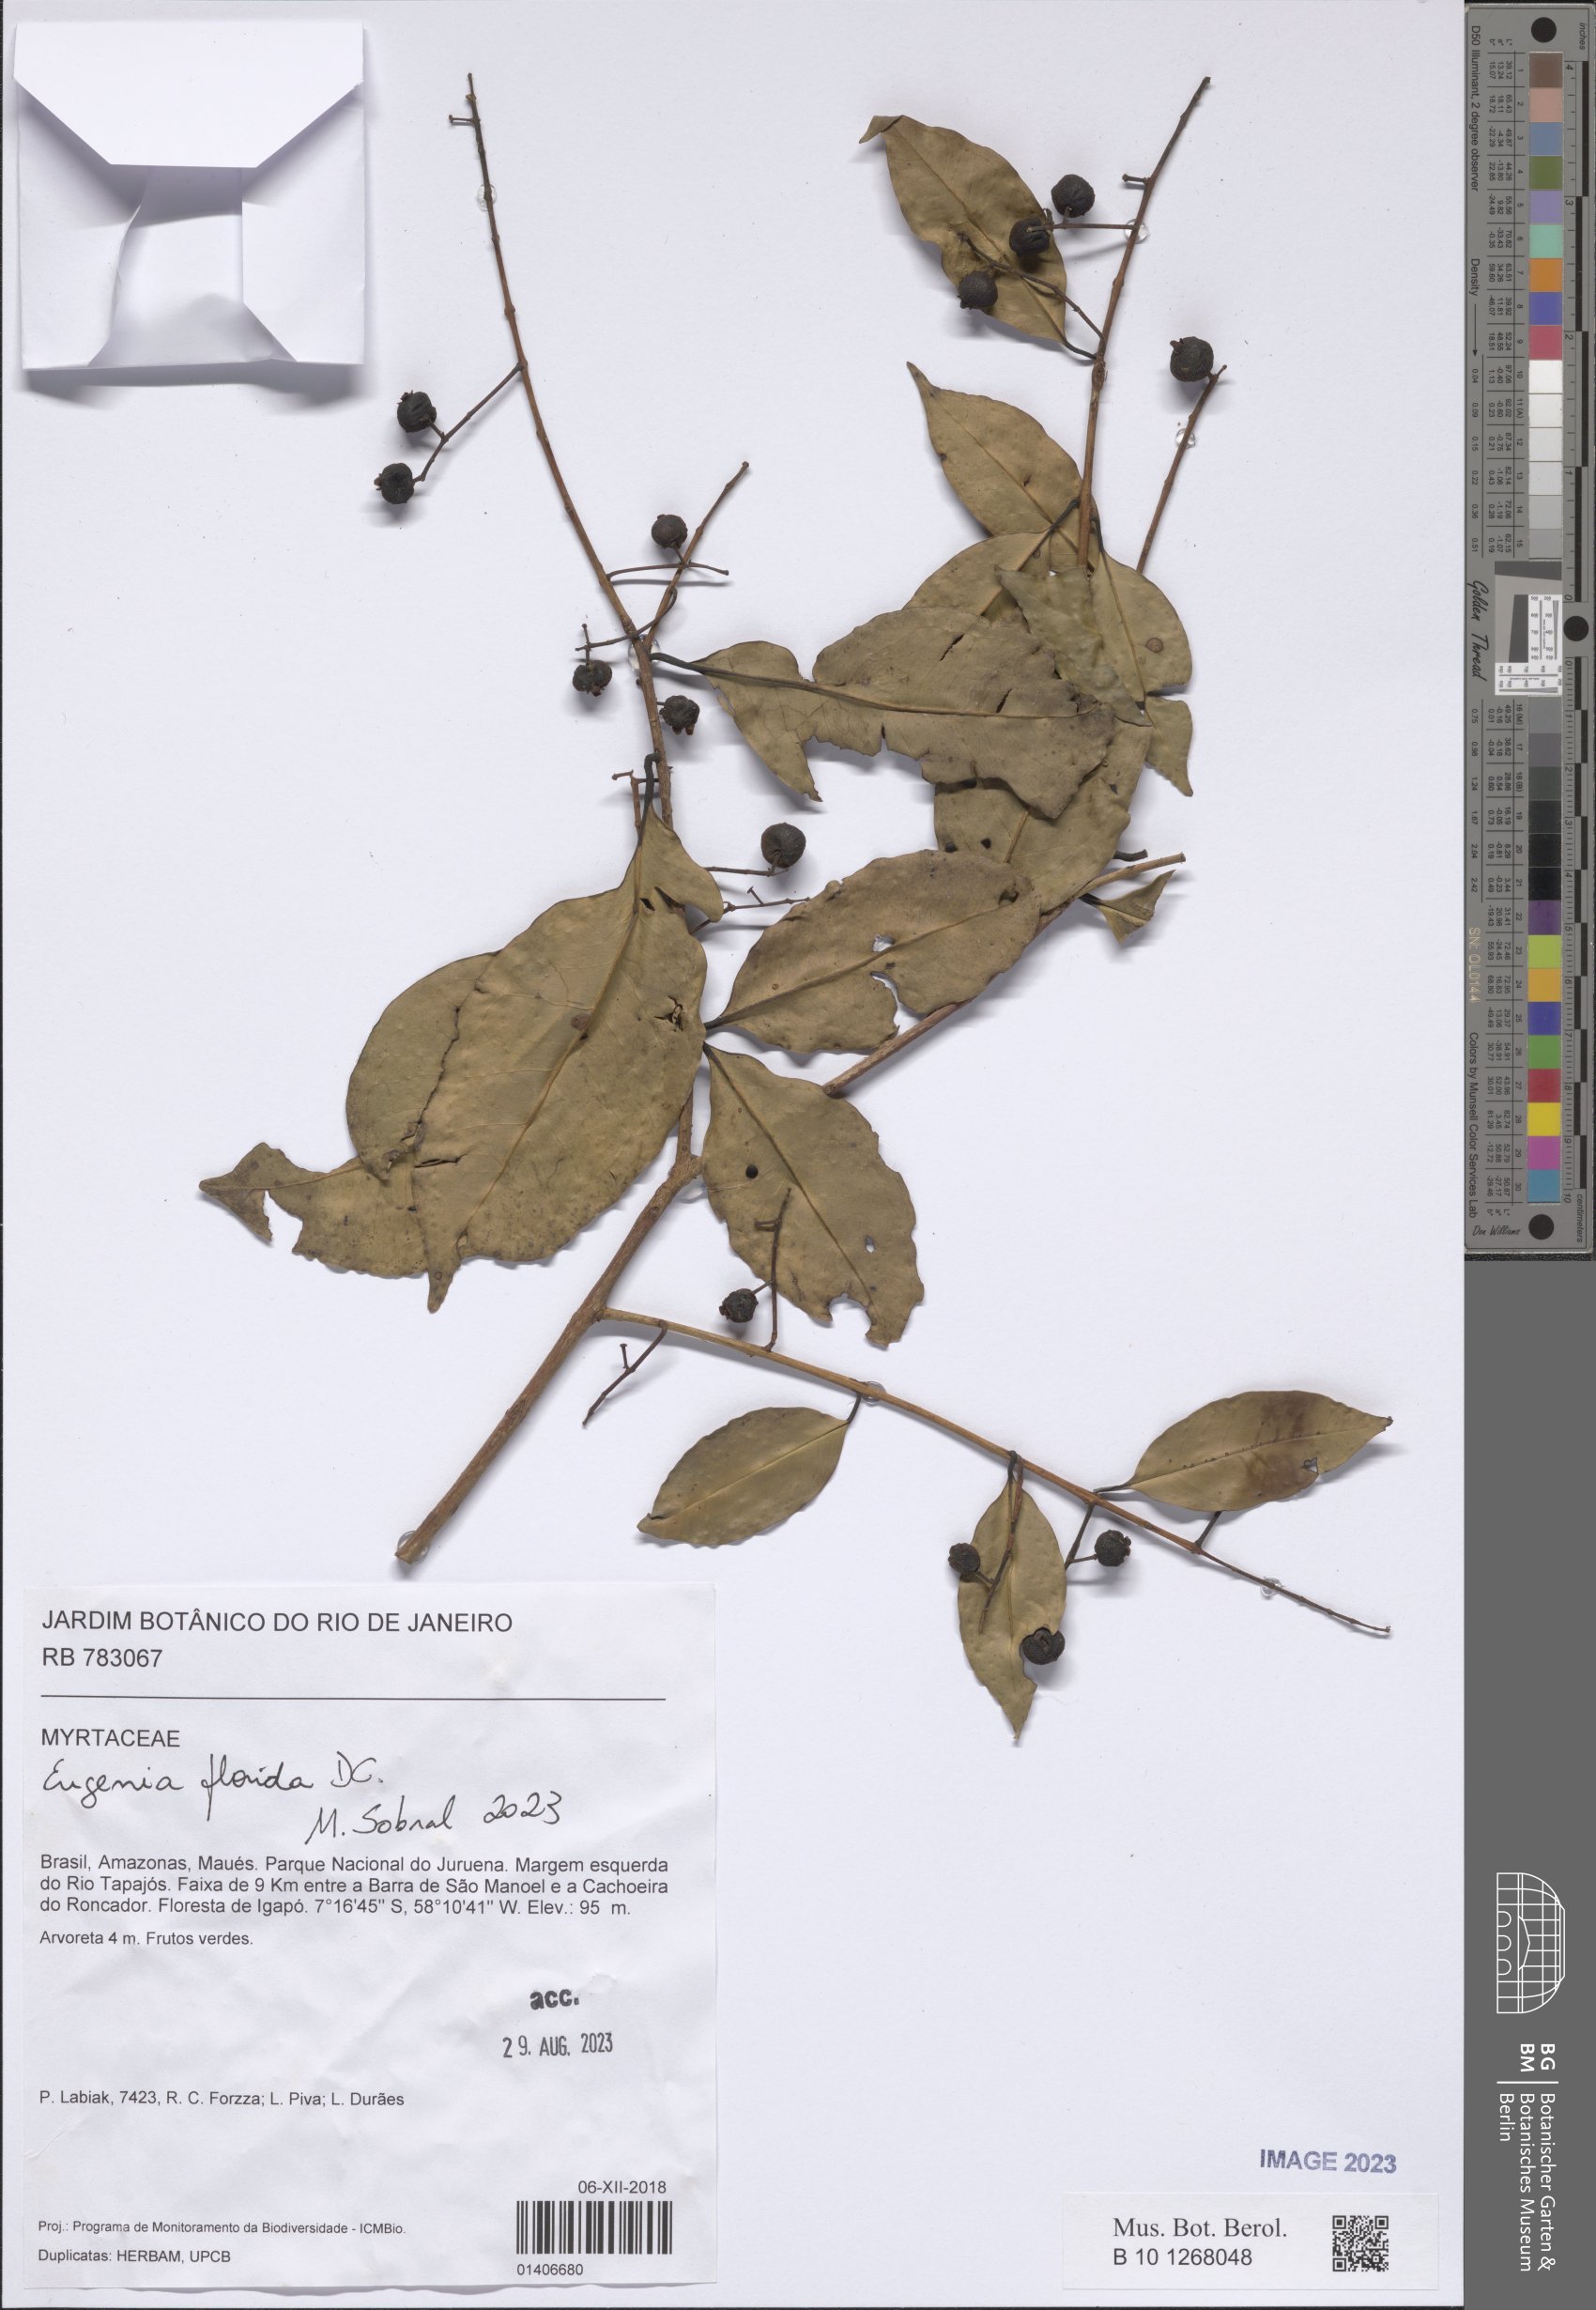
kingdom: Plantae
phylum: Tracheophyta
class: Magnoliopsida
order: Myrtales
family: Myrtaceae
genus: Eugenia
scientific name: Eugenia florida
